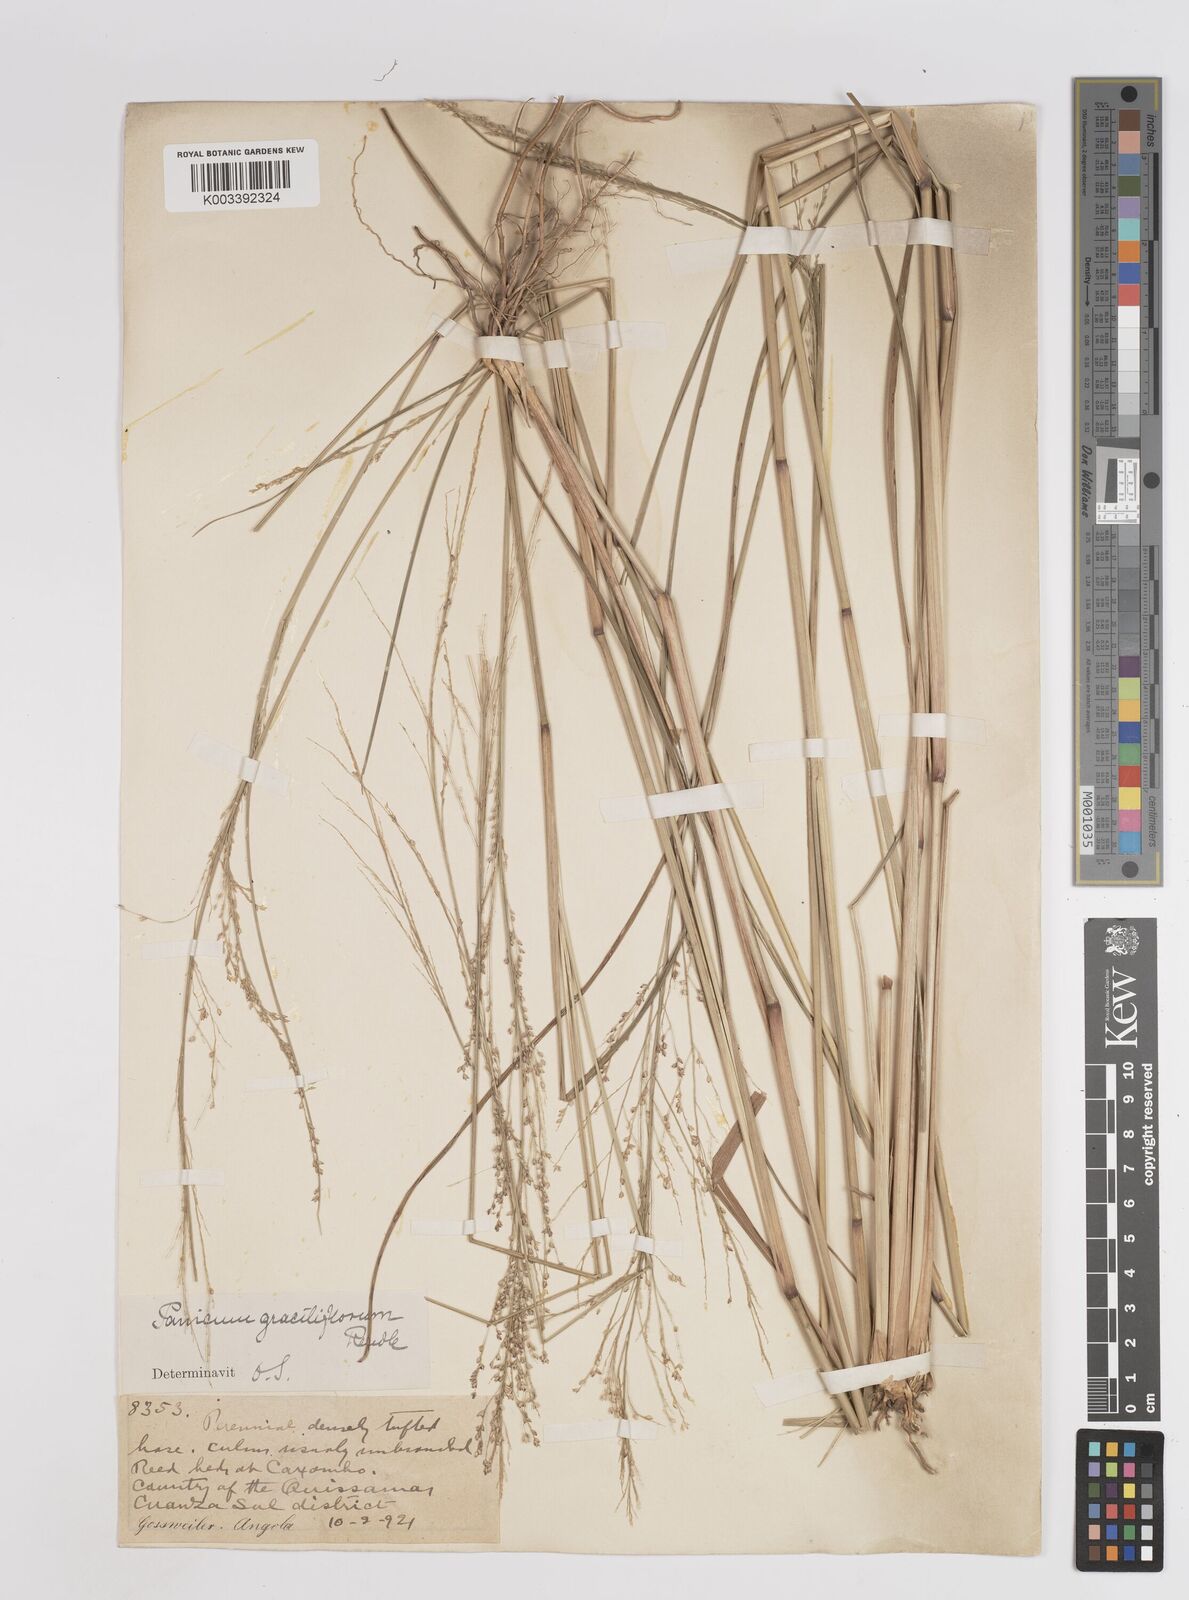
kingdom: Plantae
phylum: Tracheophyta
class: Liliopsida
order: Poales
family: Poaceae
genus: Panicum
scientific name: Panicum fluviicola
